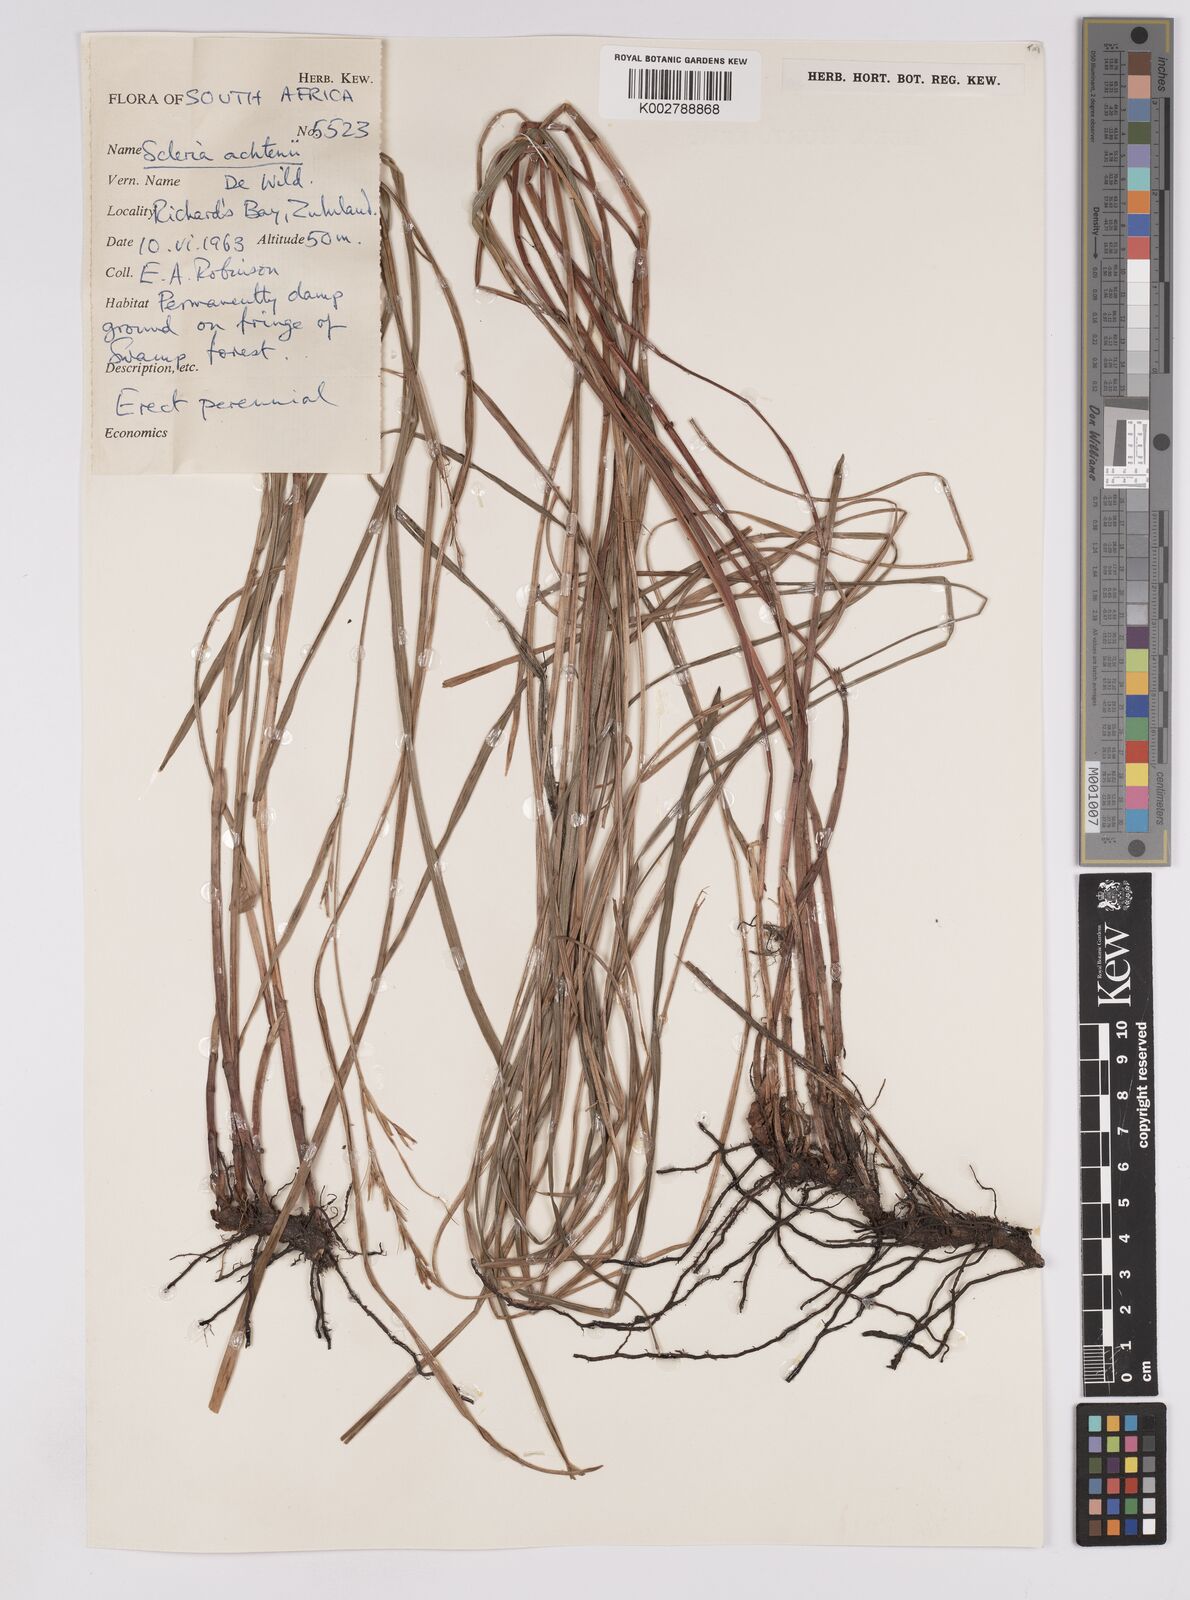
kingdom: Plantae
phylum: Tracheophyta
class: Liliopsida
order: Poales
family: Cyperaceae
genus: Scleria
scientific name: Scleria achtenii
